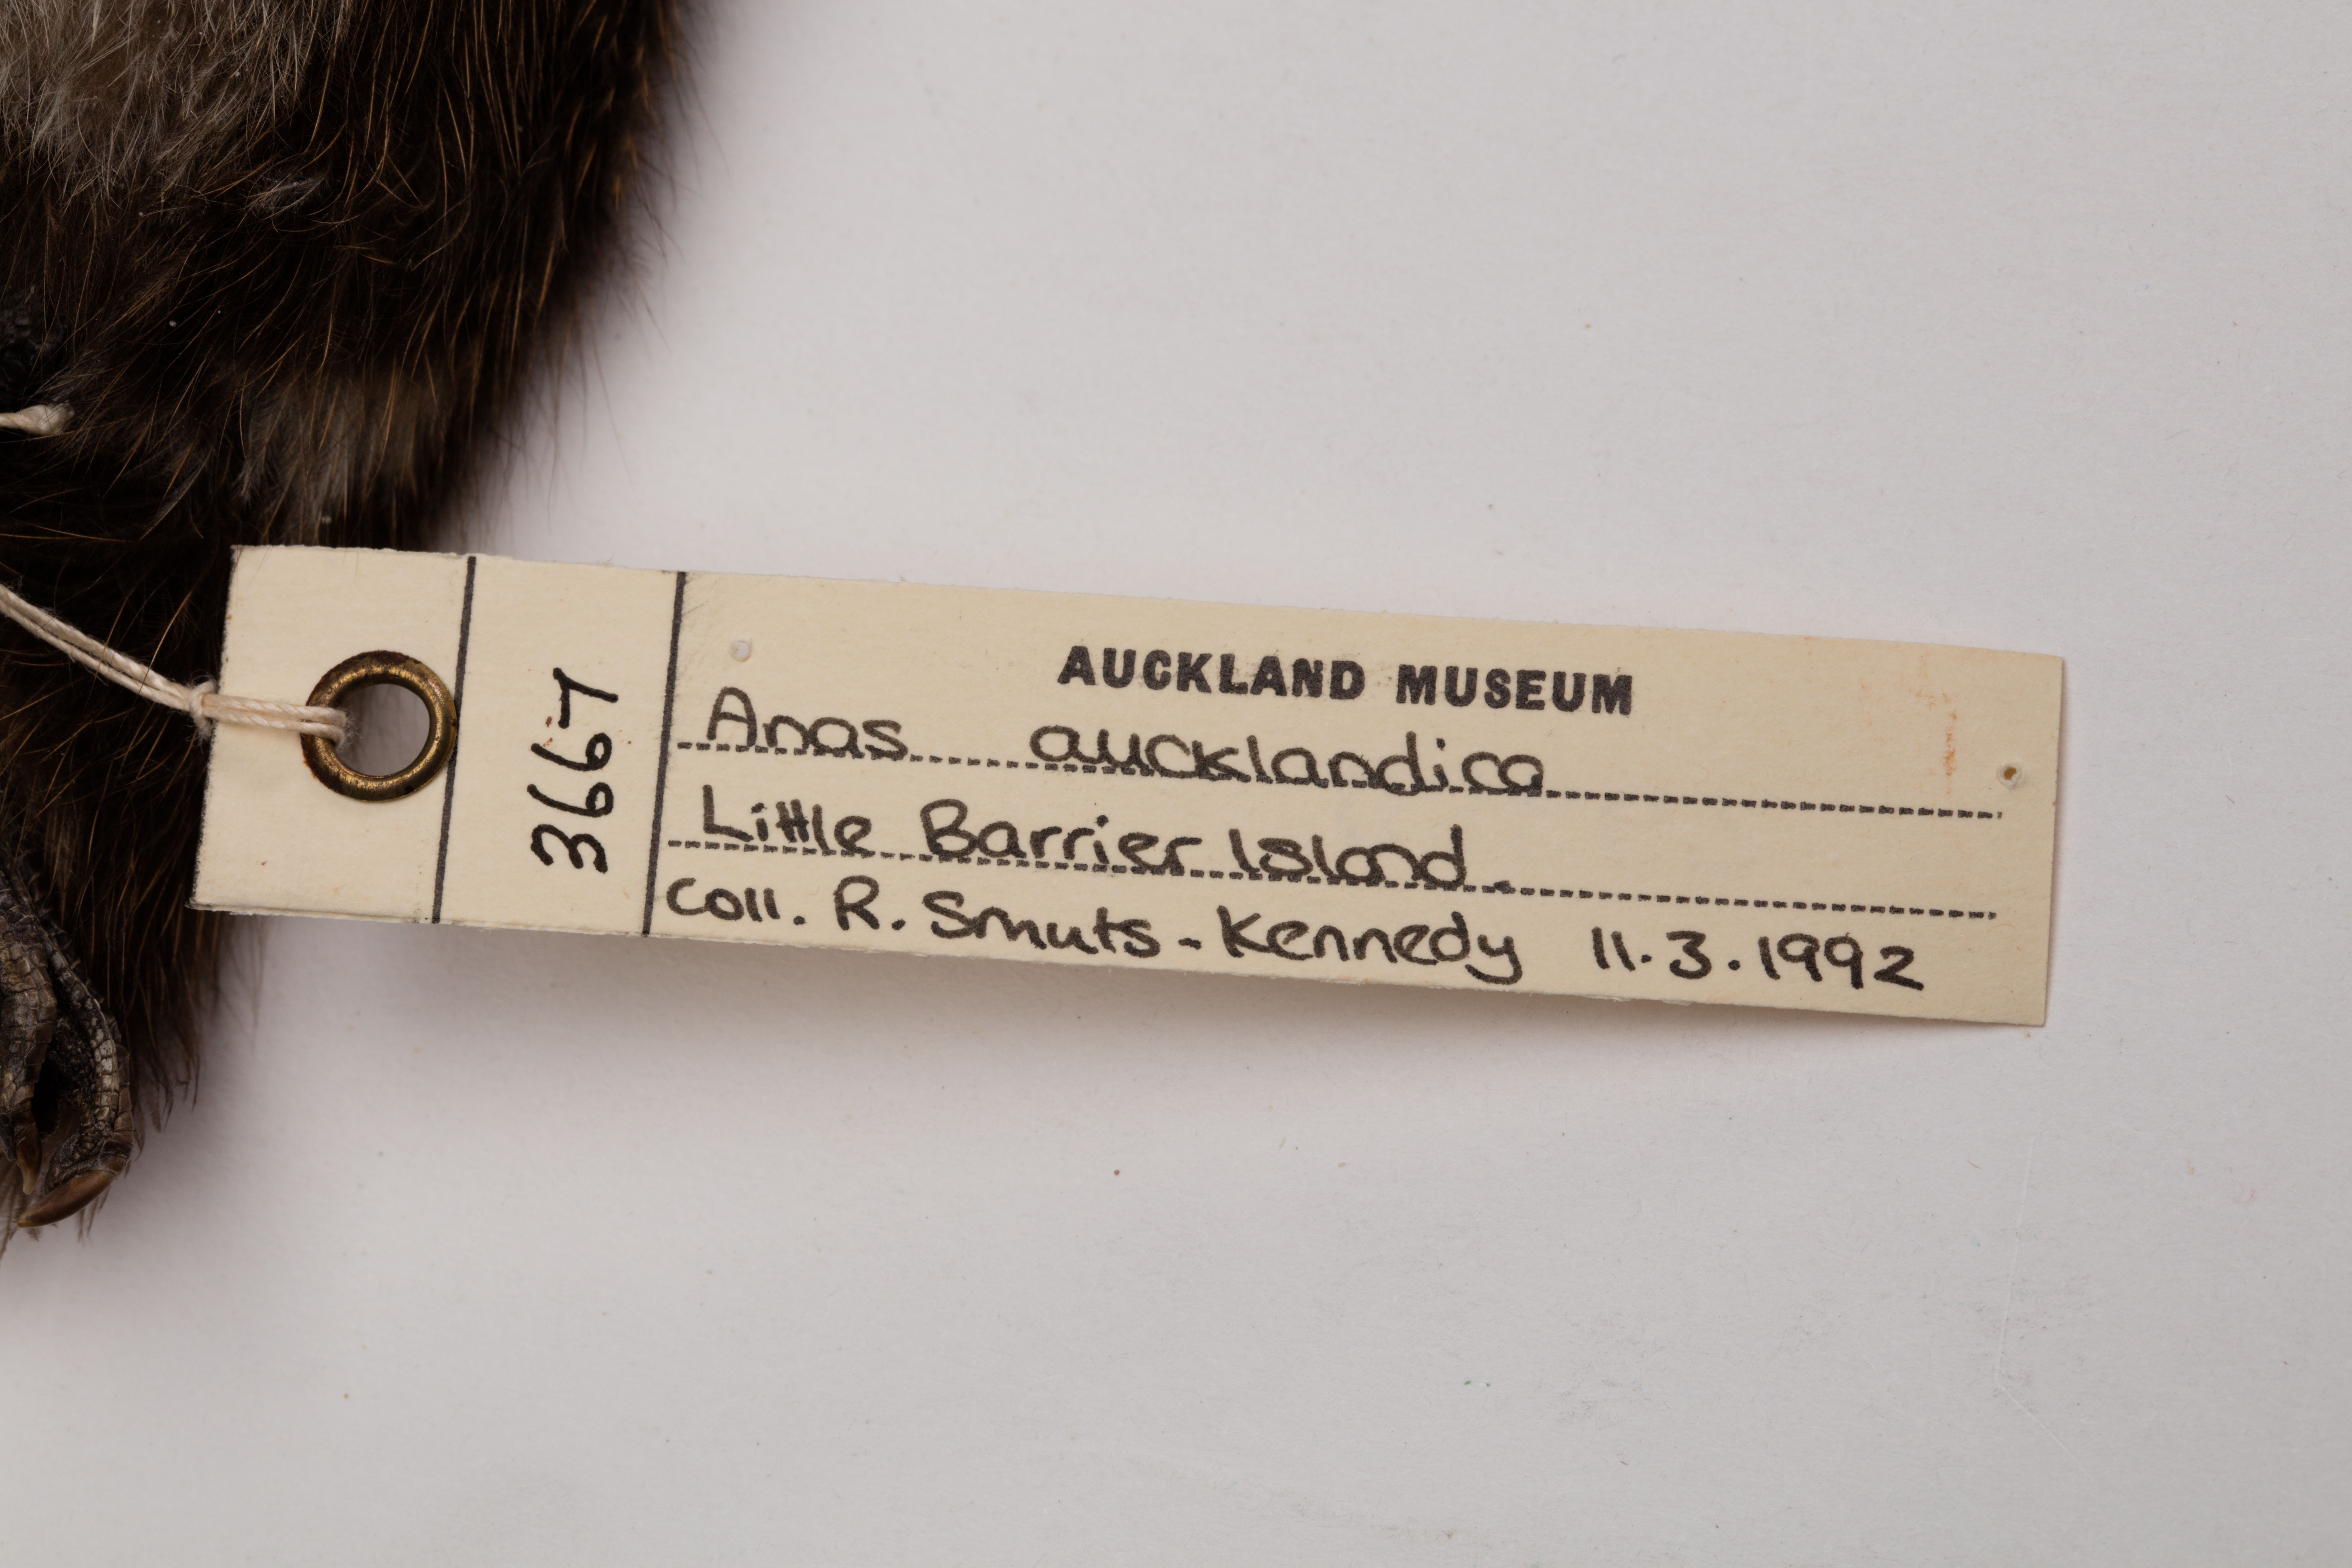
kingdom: Animalia
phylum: Chordata
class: Aves
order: Anseriformes
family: Anatidae
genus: Anas
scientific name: Anas chlorotis
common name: Brown teal
